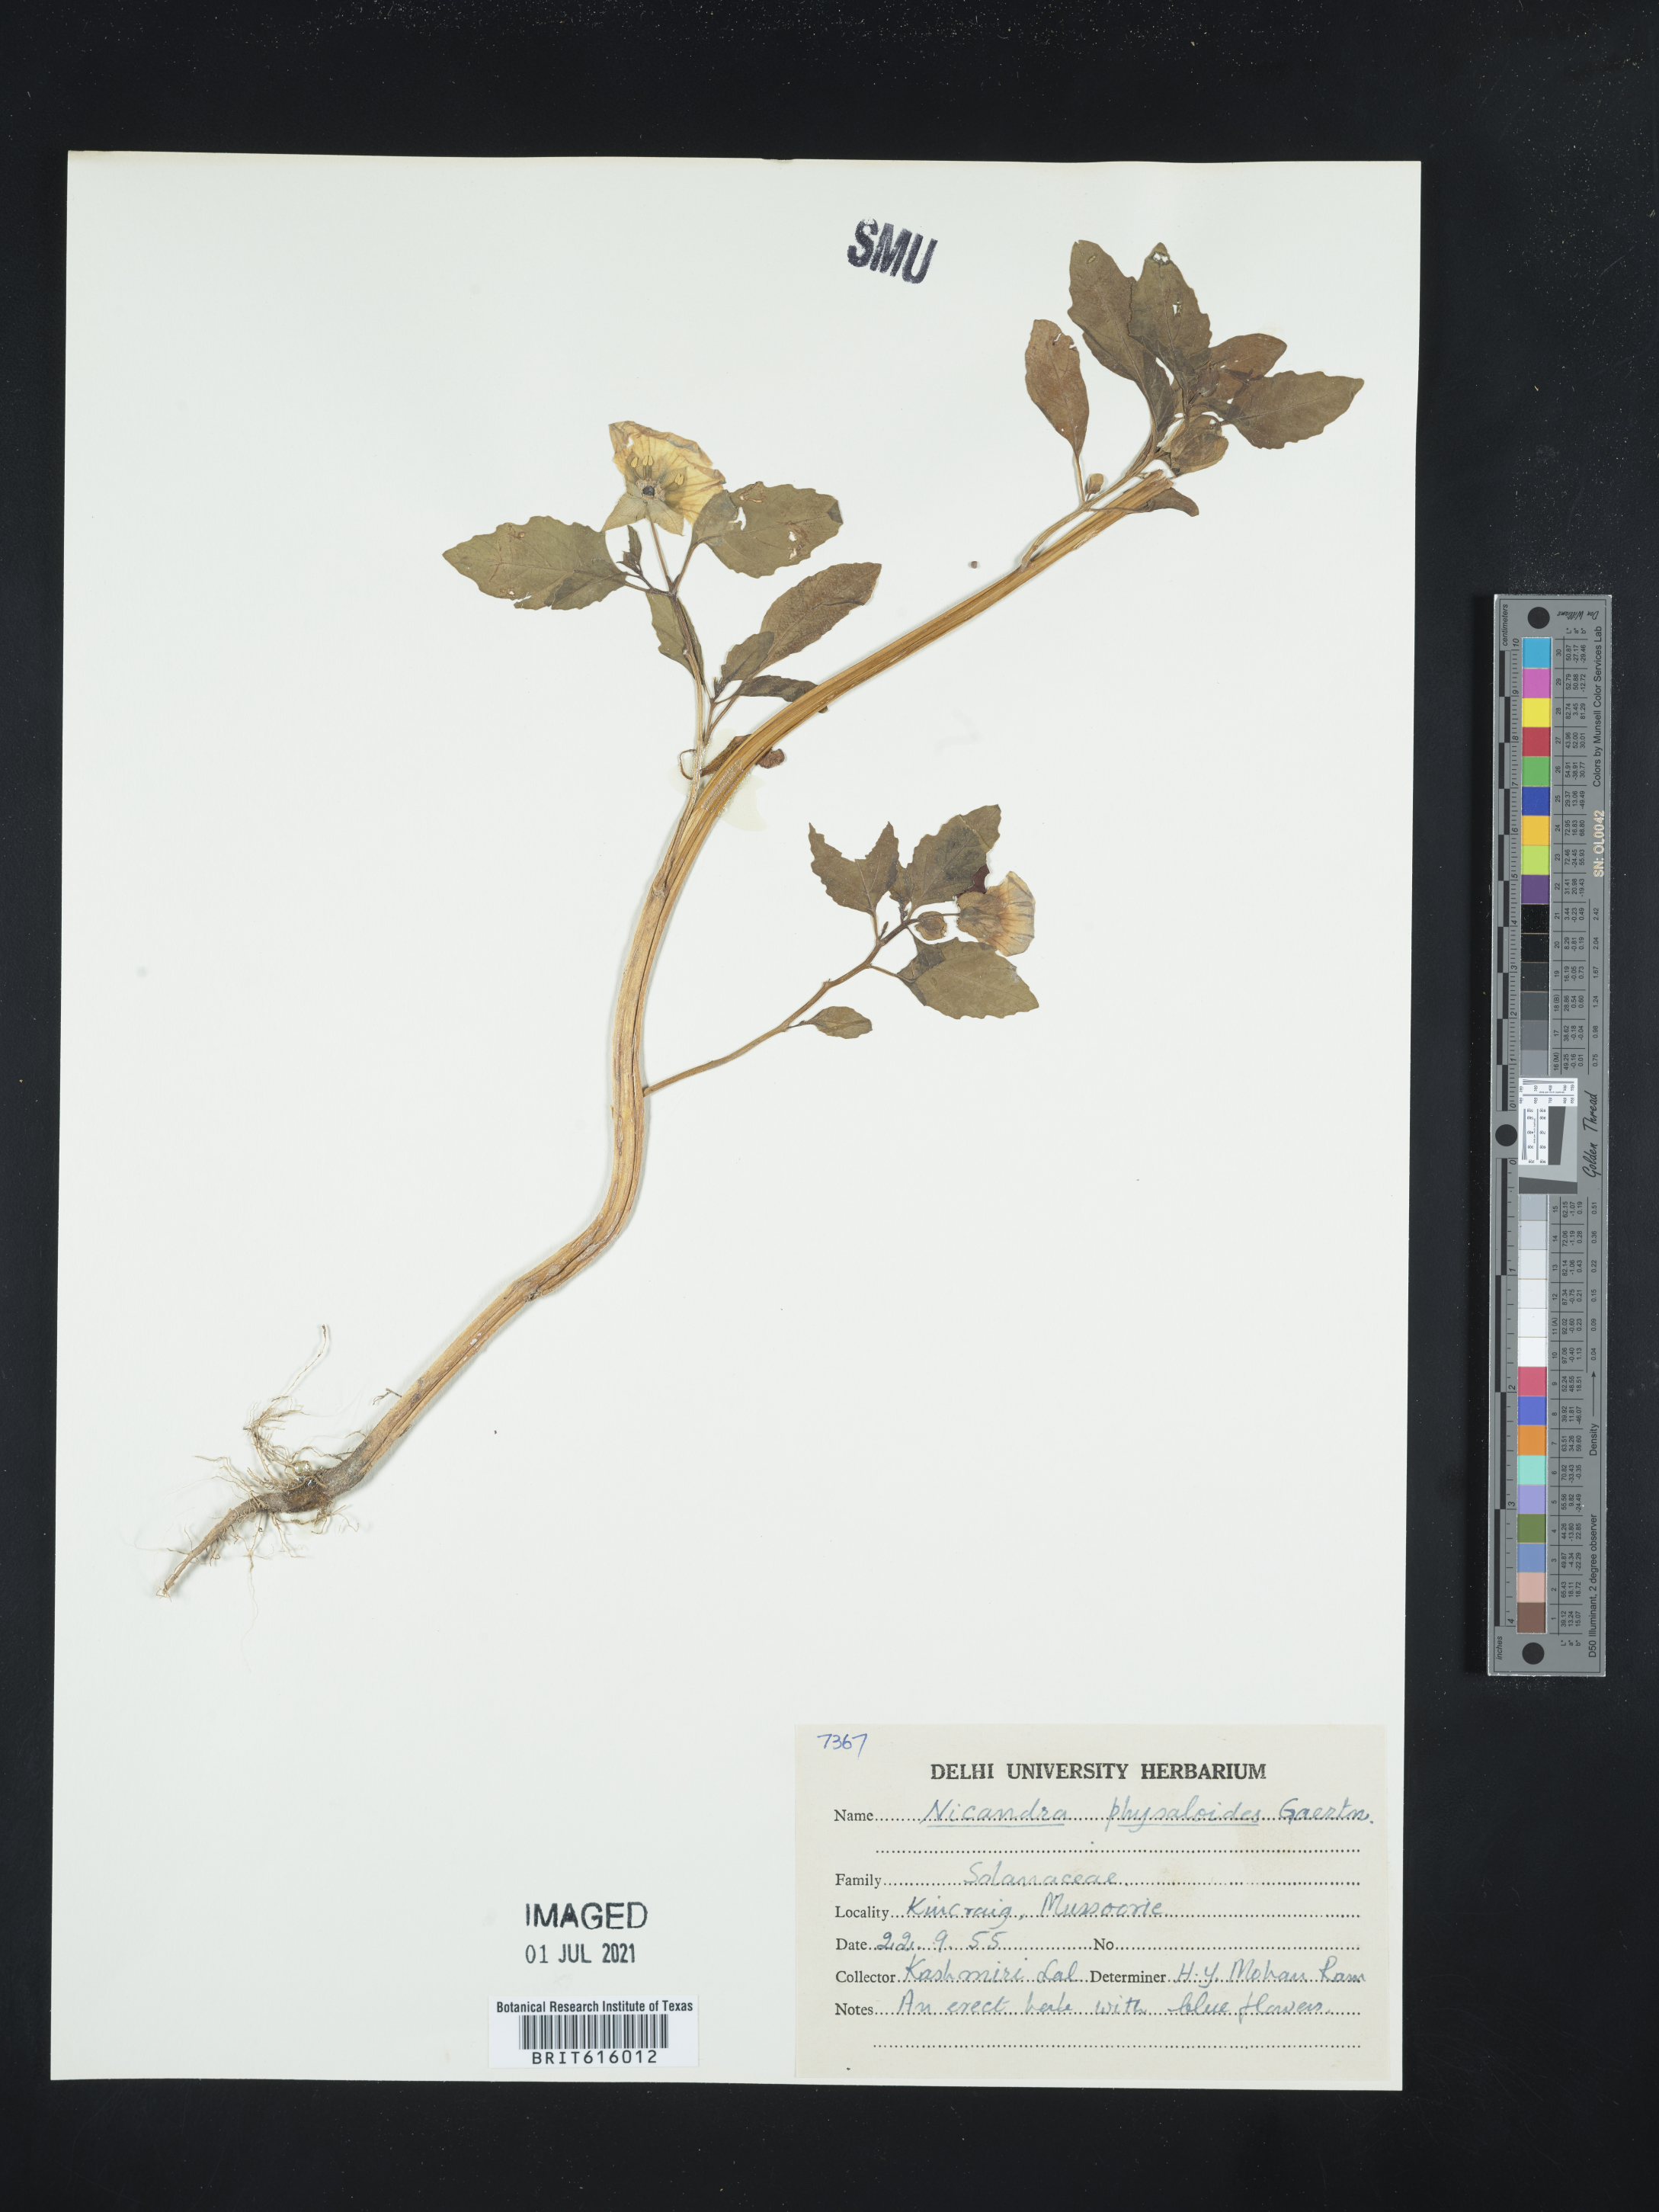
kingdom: Plantae
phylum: Tracheophyta
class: Magnoliopsida
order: Solanales
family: Solanaceae
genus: Nicandra
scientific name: Nicandra physalodes
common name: Apple-of-peru
